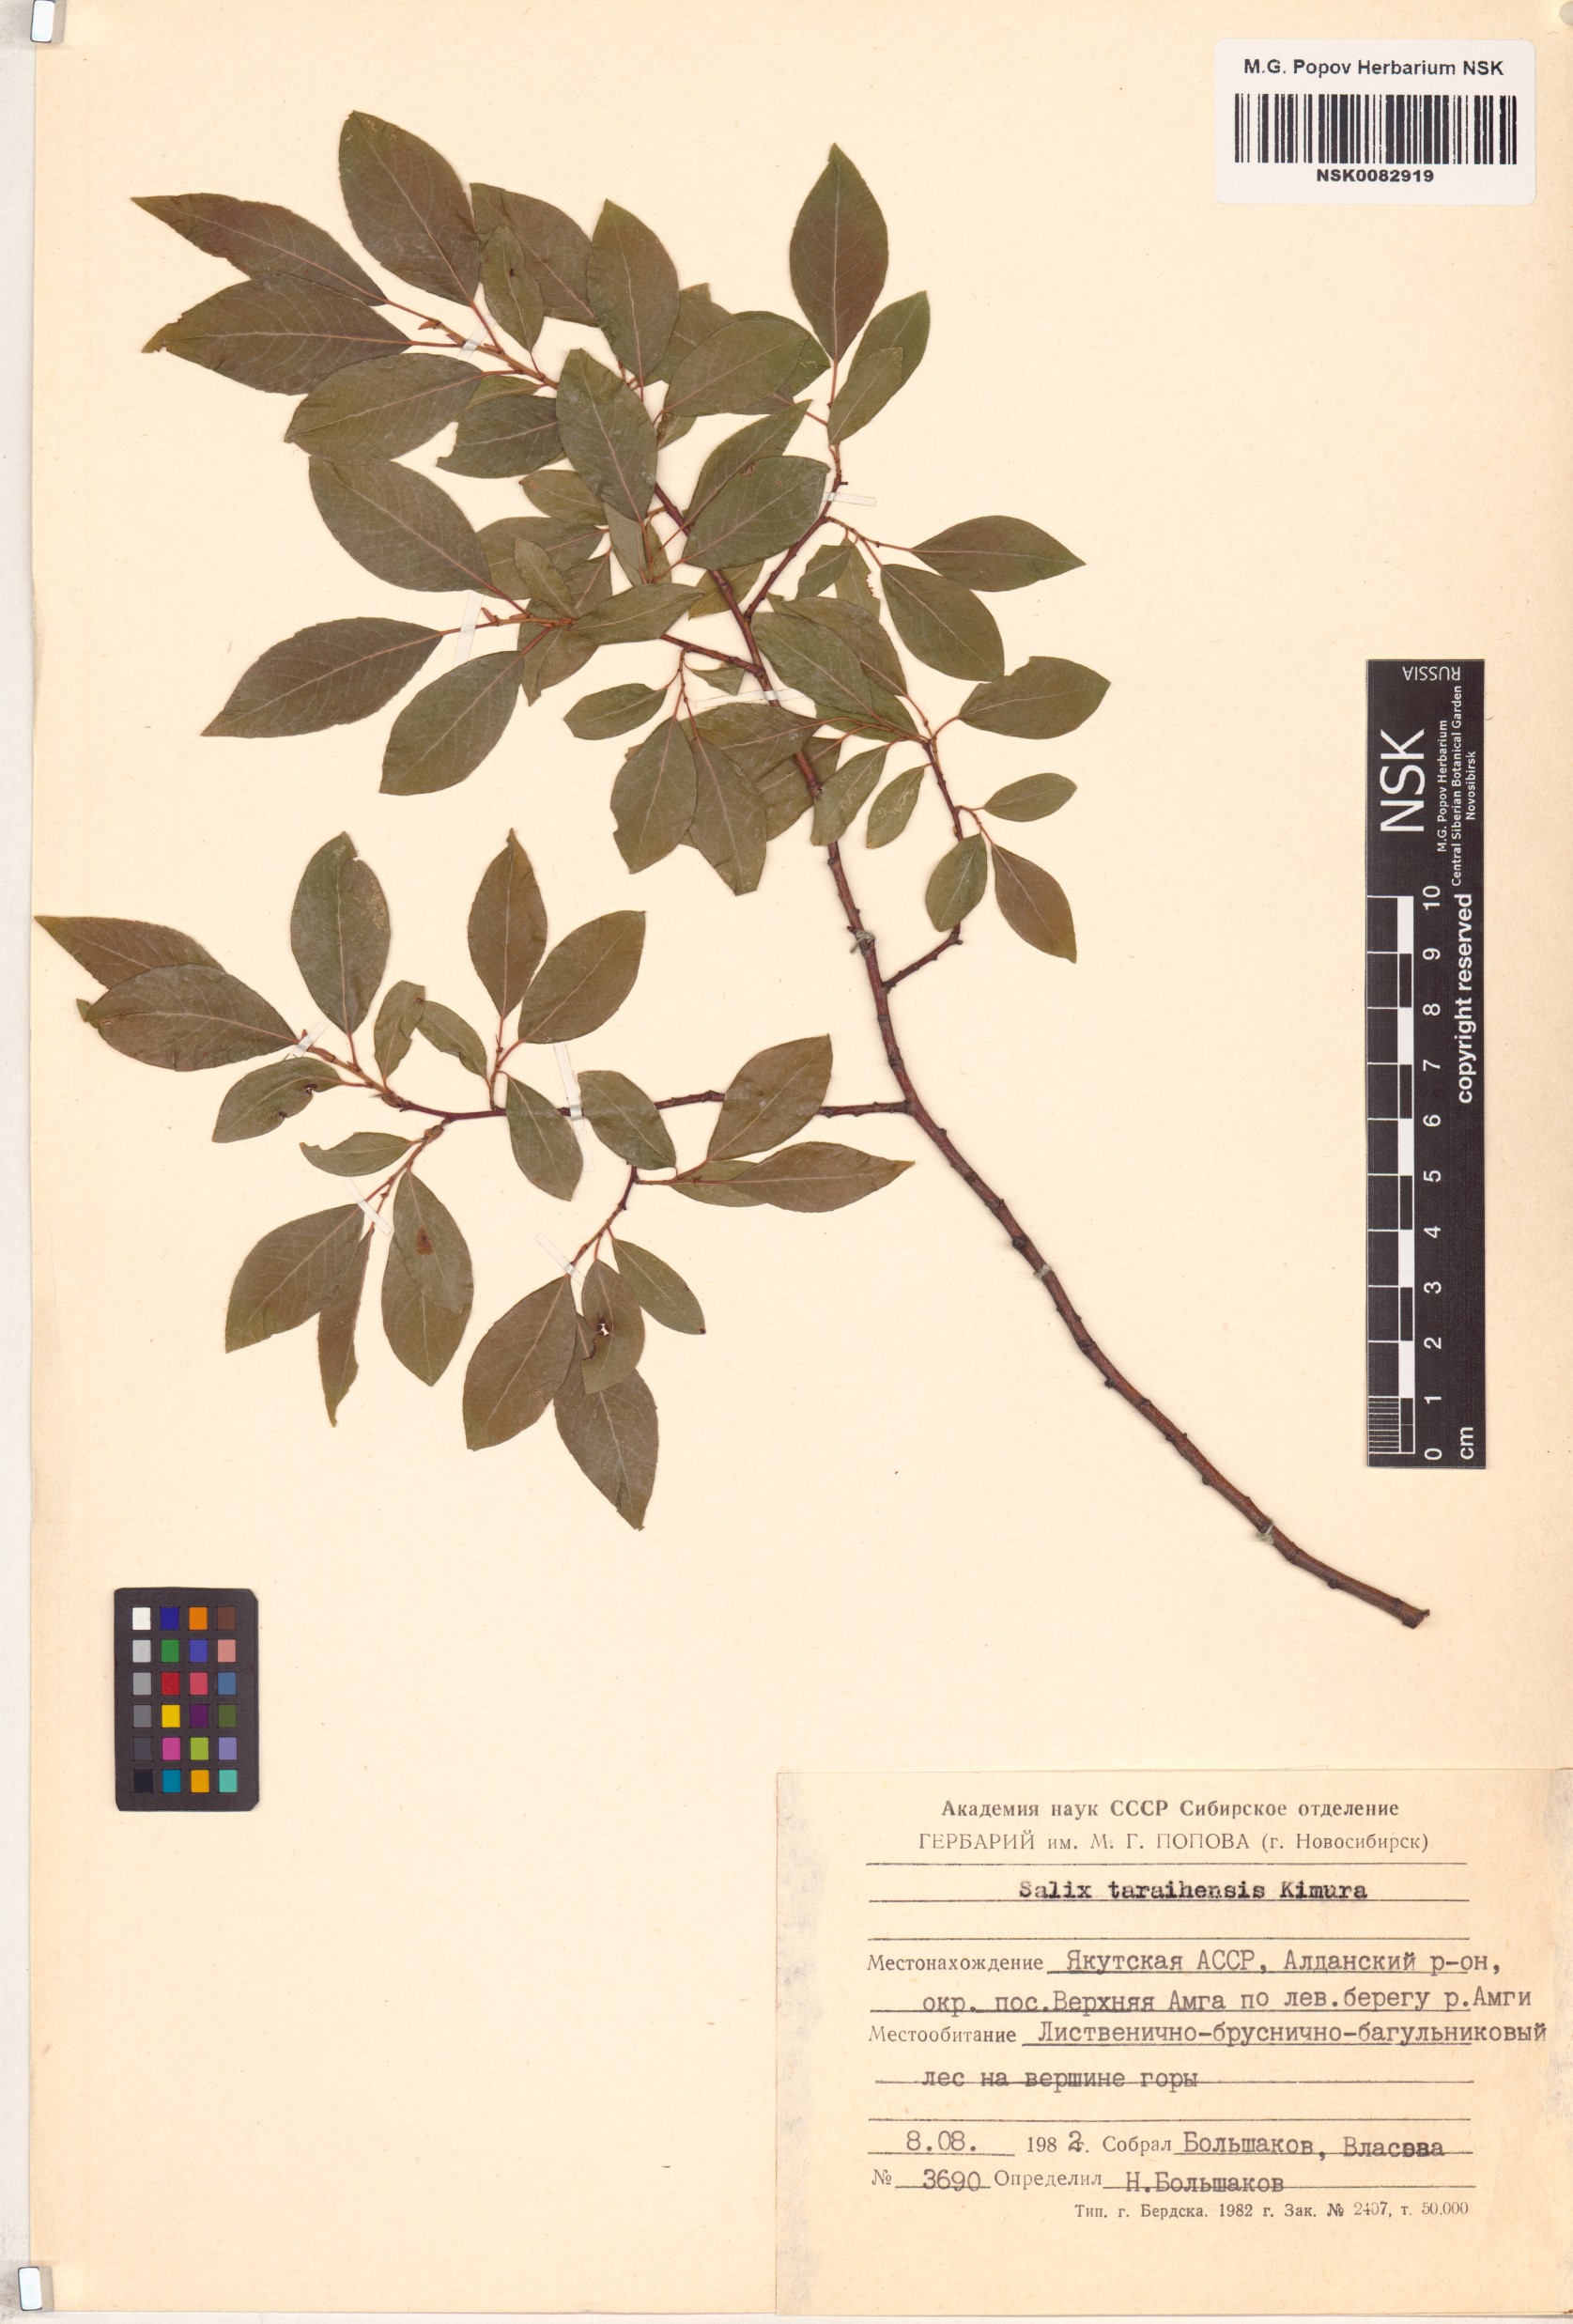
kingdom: Plantae
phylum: Tracheophyta
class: Magnoliopsida
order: Malpighiales
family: Salicaceae
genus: Salix
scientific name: Salix taraikensis
